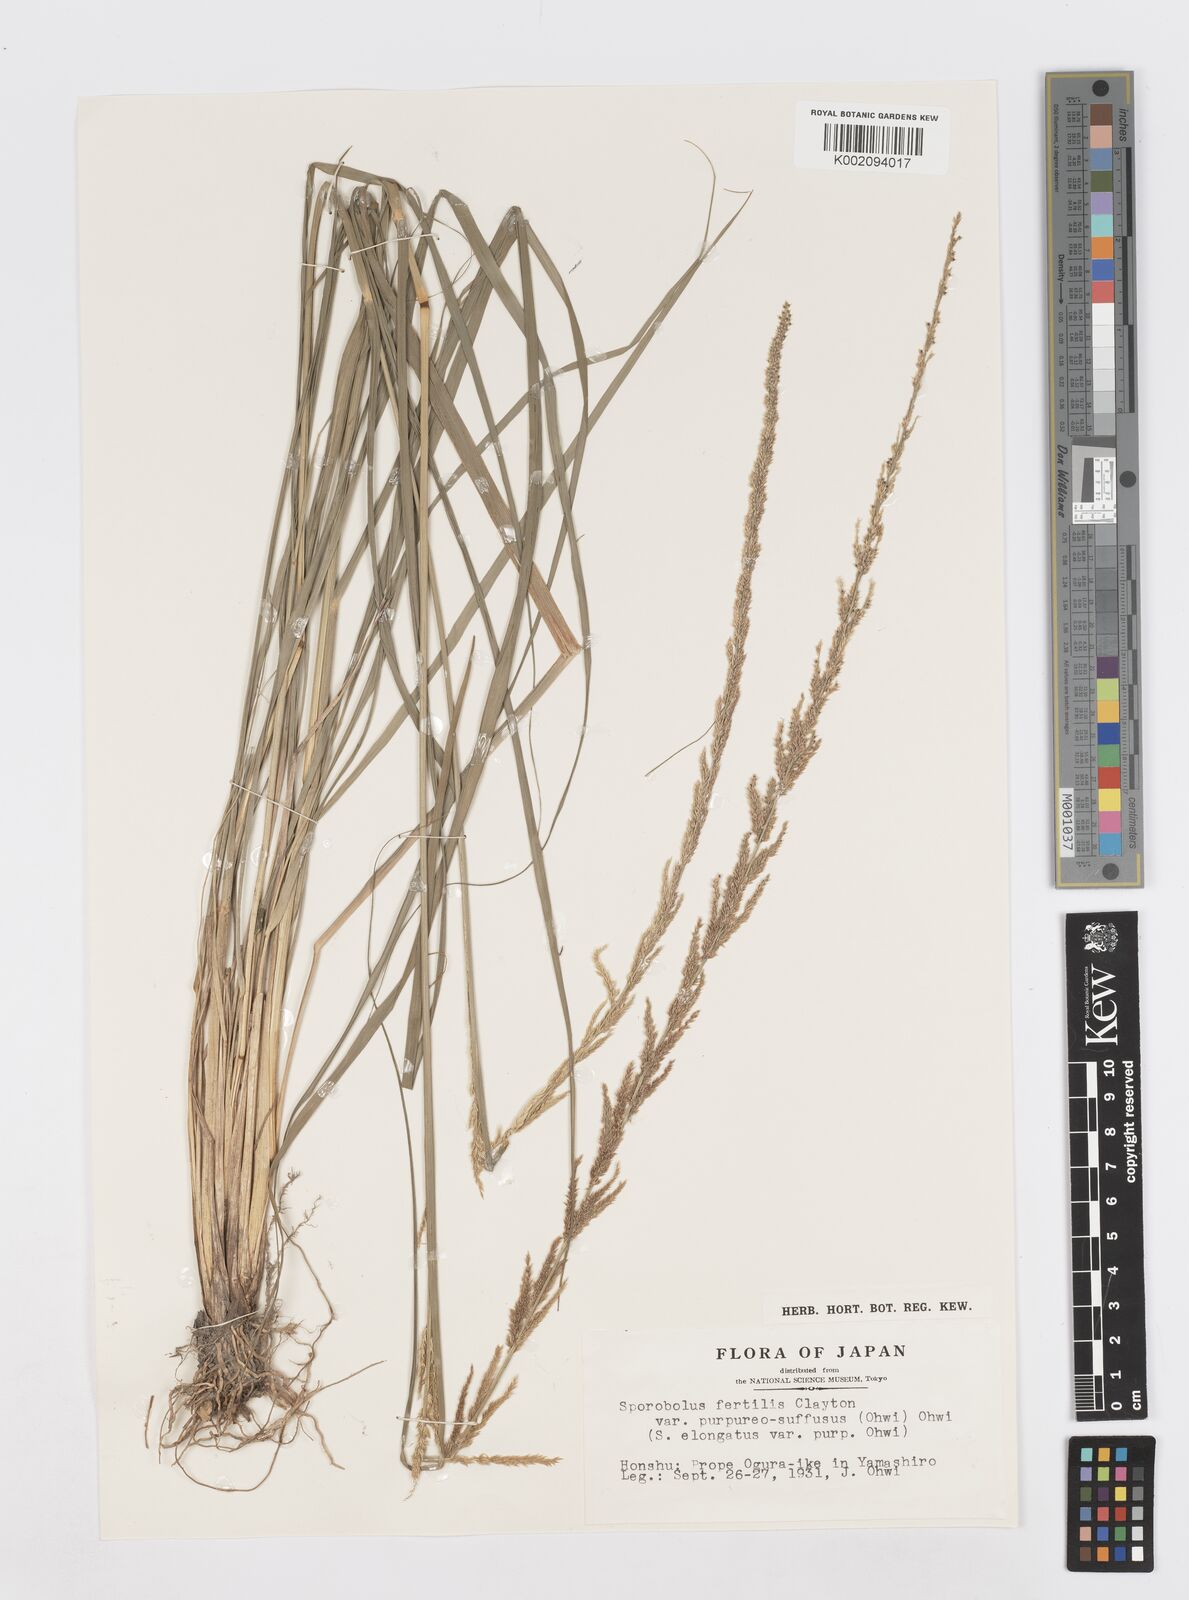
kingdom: Plantae
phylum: Tracheophyta
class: Liliopsida
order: Poales
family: Poaceae
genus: Sporobolus
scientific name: Sporobolus fertilis
